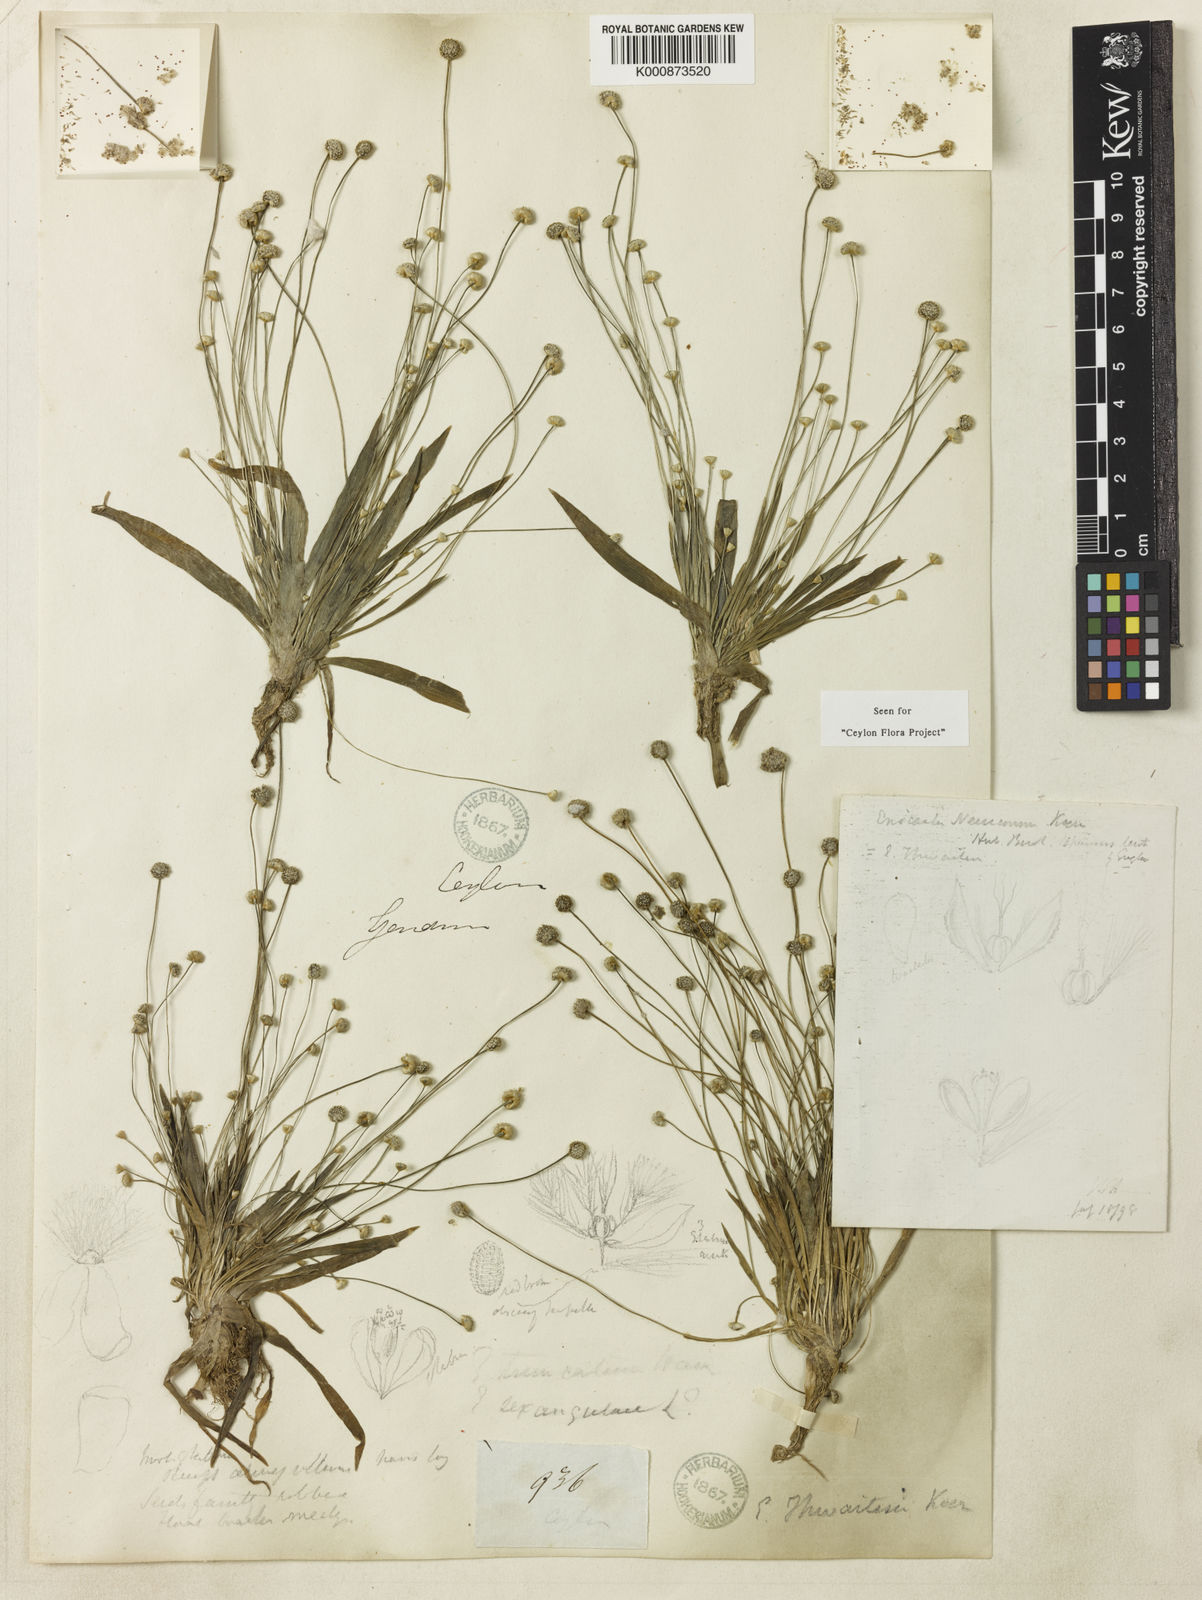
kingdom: Plantae
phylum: Tracheophyta
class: Liliopsida
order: Poales
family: Eriocaulaceae
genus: Eriocaulon
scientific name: Eriocaulon
